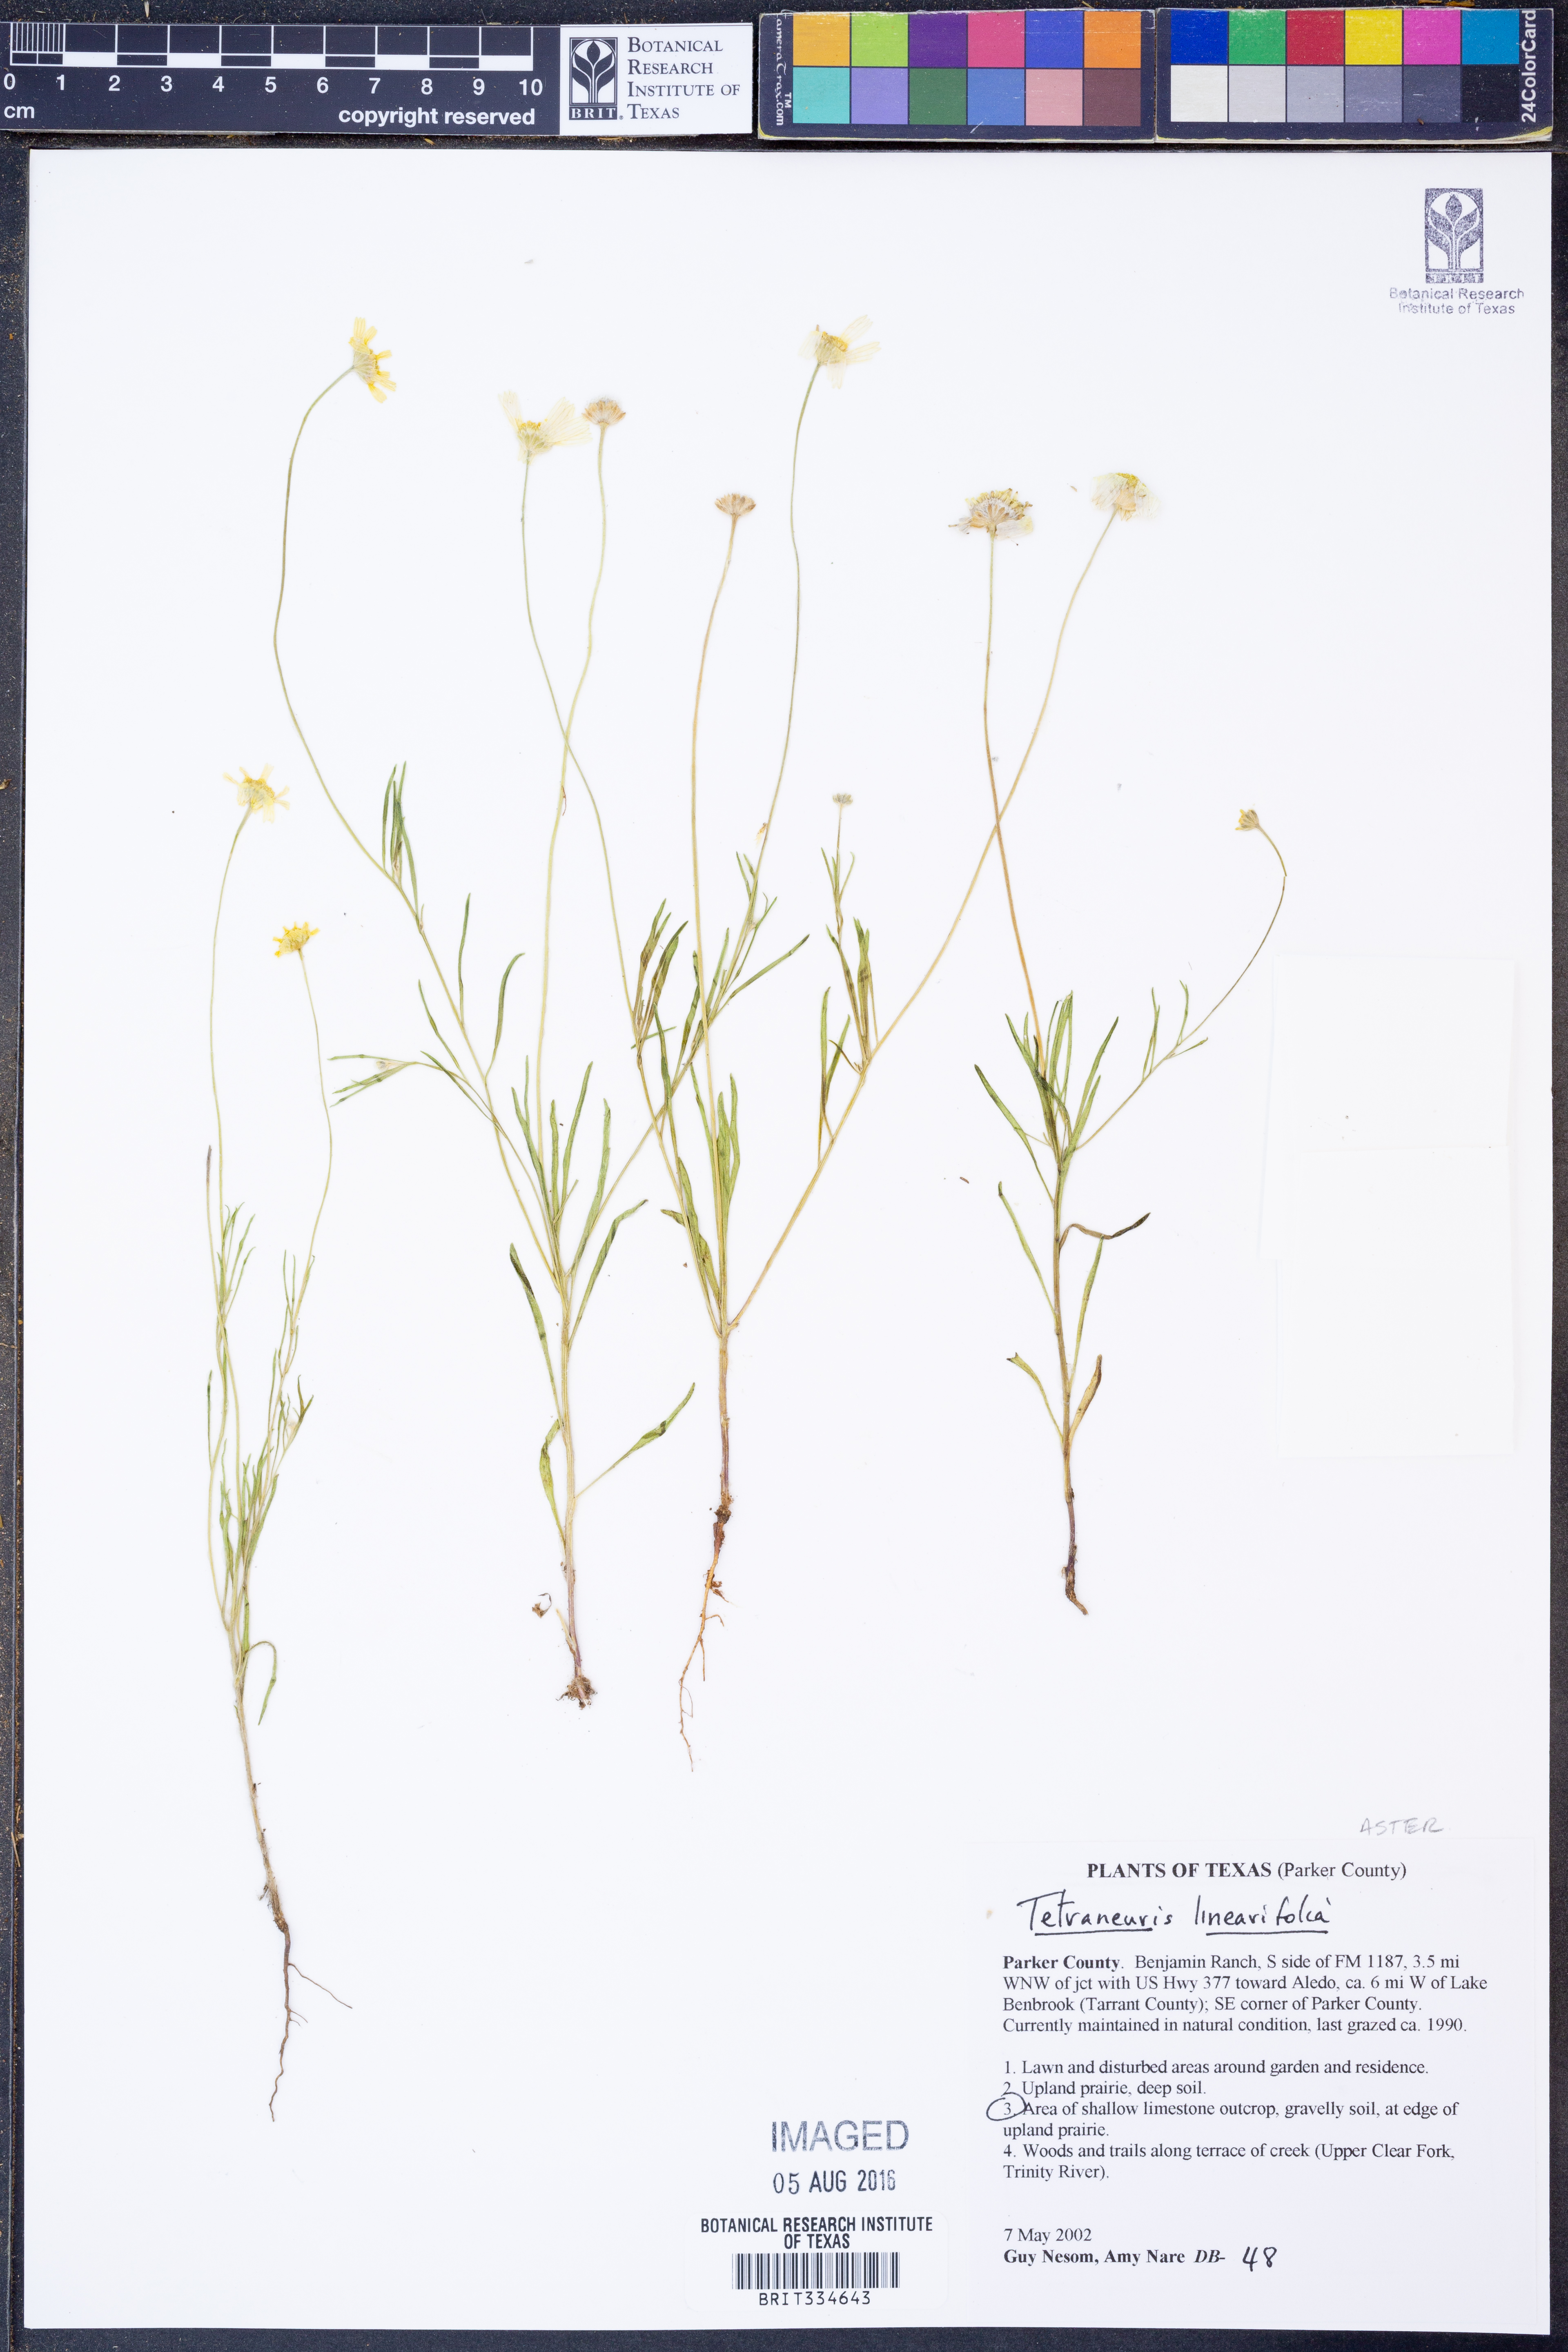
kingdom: Plantae
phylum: Tracheophyta
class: Magnoliopsida
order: Asterales
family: Asteraceae
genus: Tetraneuris
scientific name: Tetraneuris linearifolia
